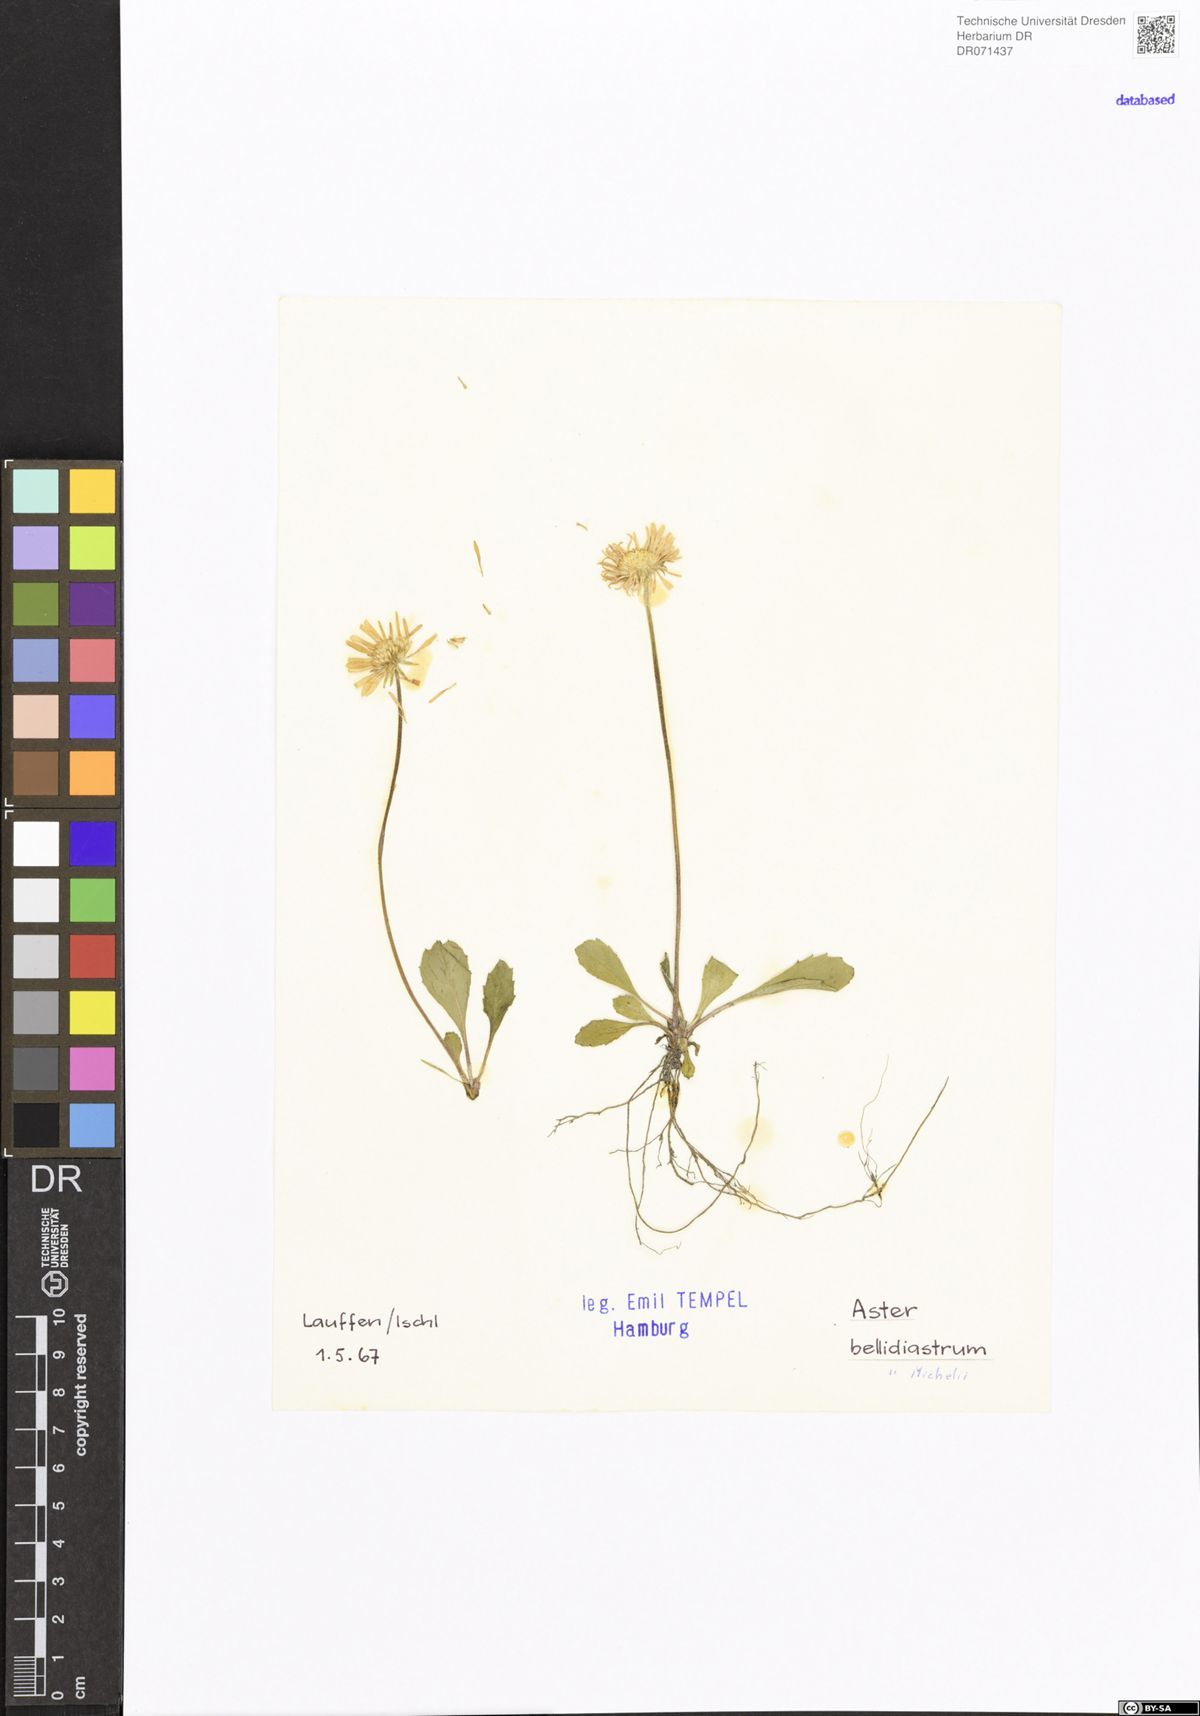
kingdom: Plantae
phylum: Tracheophyta
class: Magnoliopsida
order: Asterales
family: Asteraceae
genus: Bellidiastrum
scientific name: Bellidiastrum michelii
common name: Daisy-star aster
